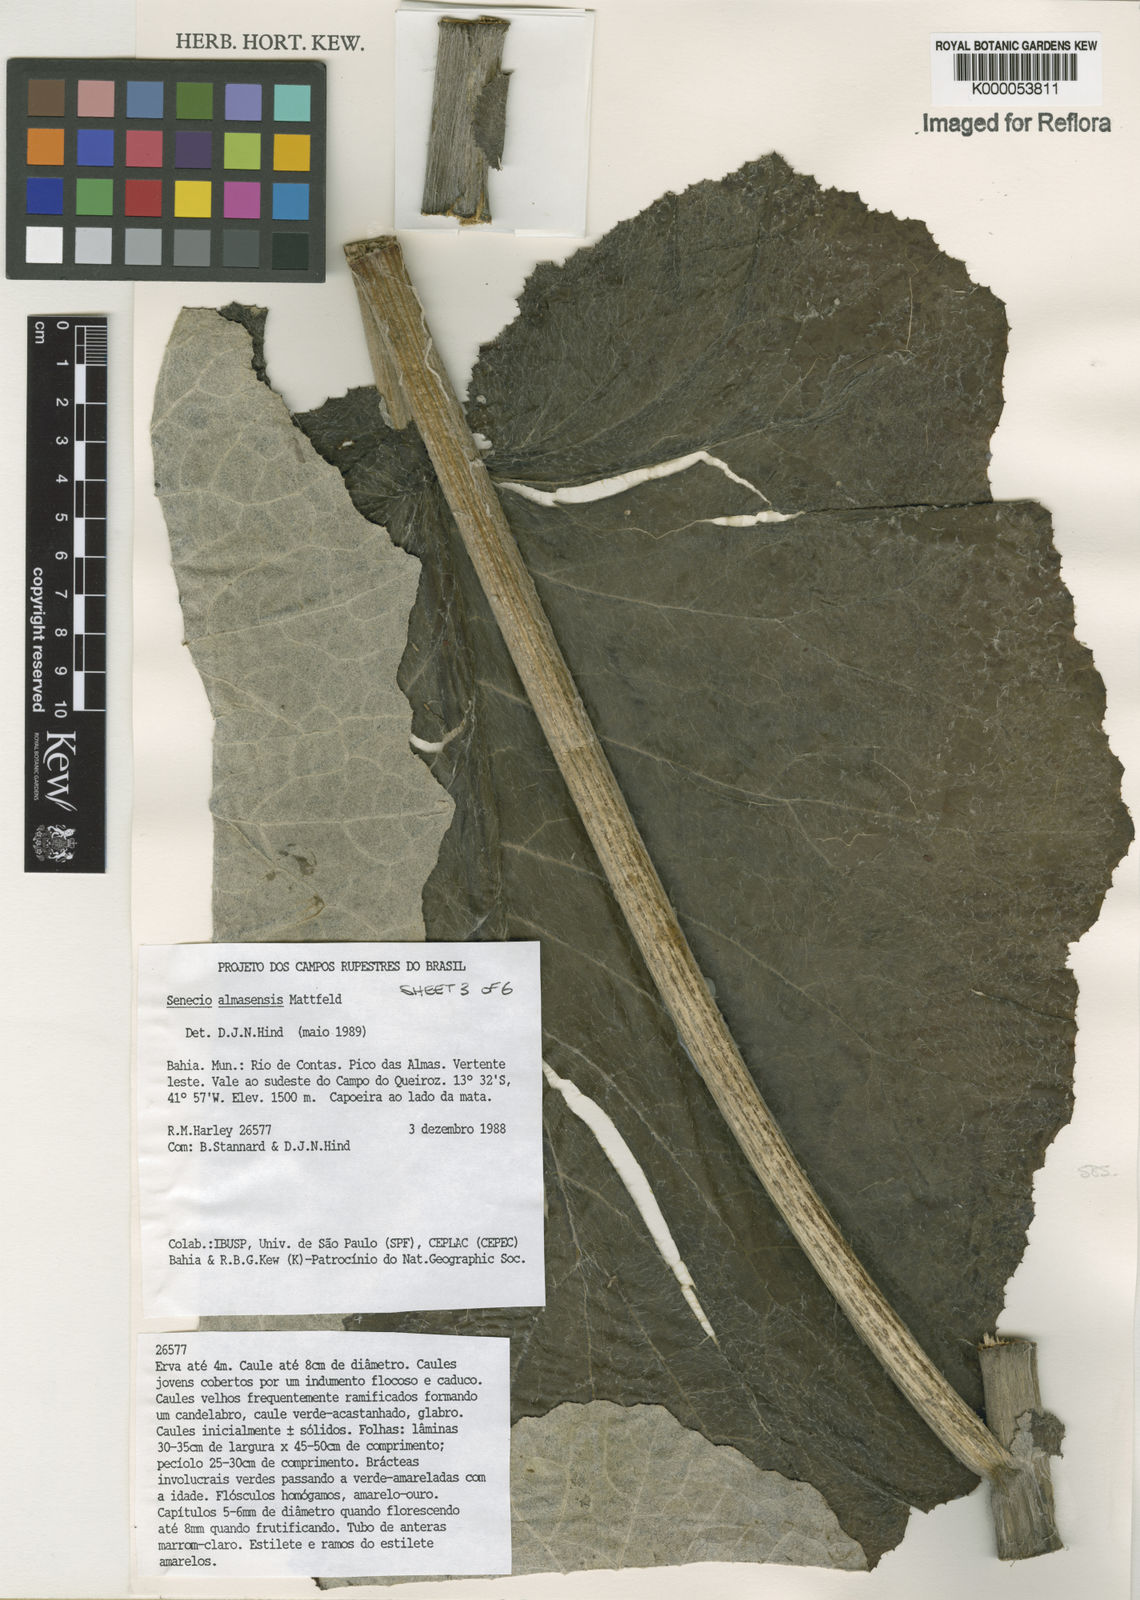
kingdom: Plantae
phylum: Tracheophyta
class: Magnoliopsida
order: Asterales
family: Asteraceae
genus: Senecio
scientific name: Senecio almasensis
